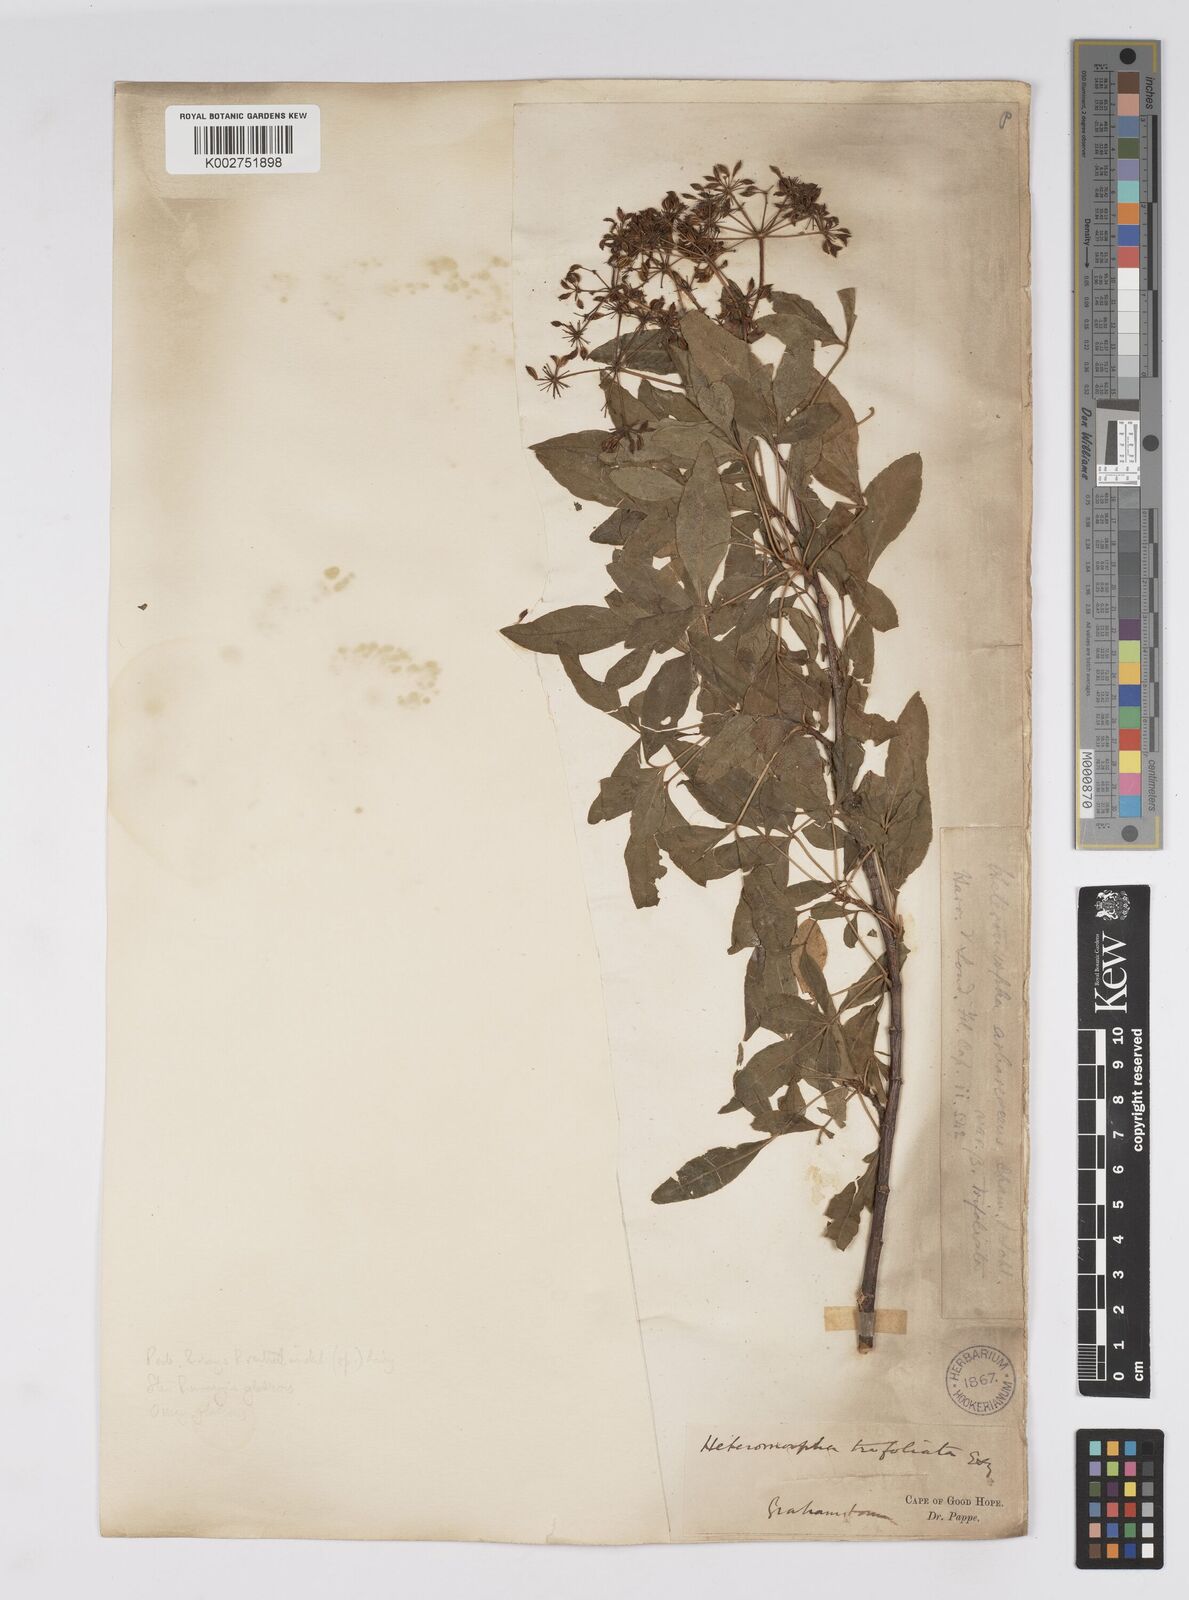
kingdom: Plantae
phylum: Tracheophyta
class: Magnoliopsida
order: Apiales
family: Apiaceae
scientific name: Apiaceae
